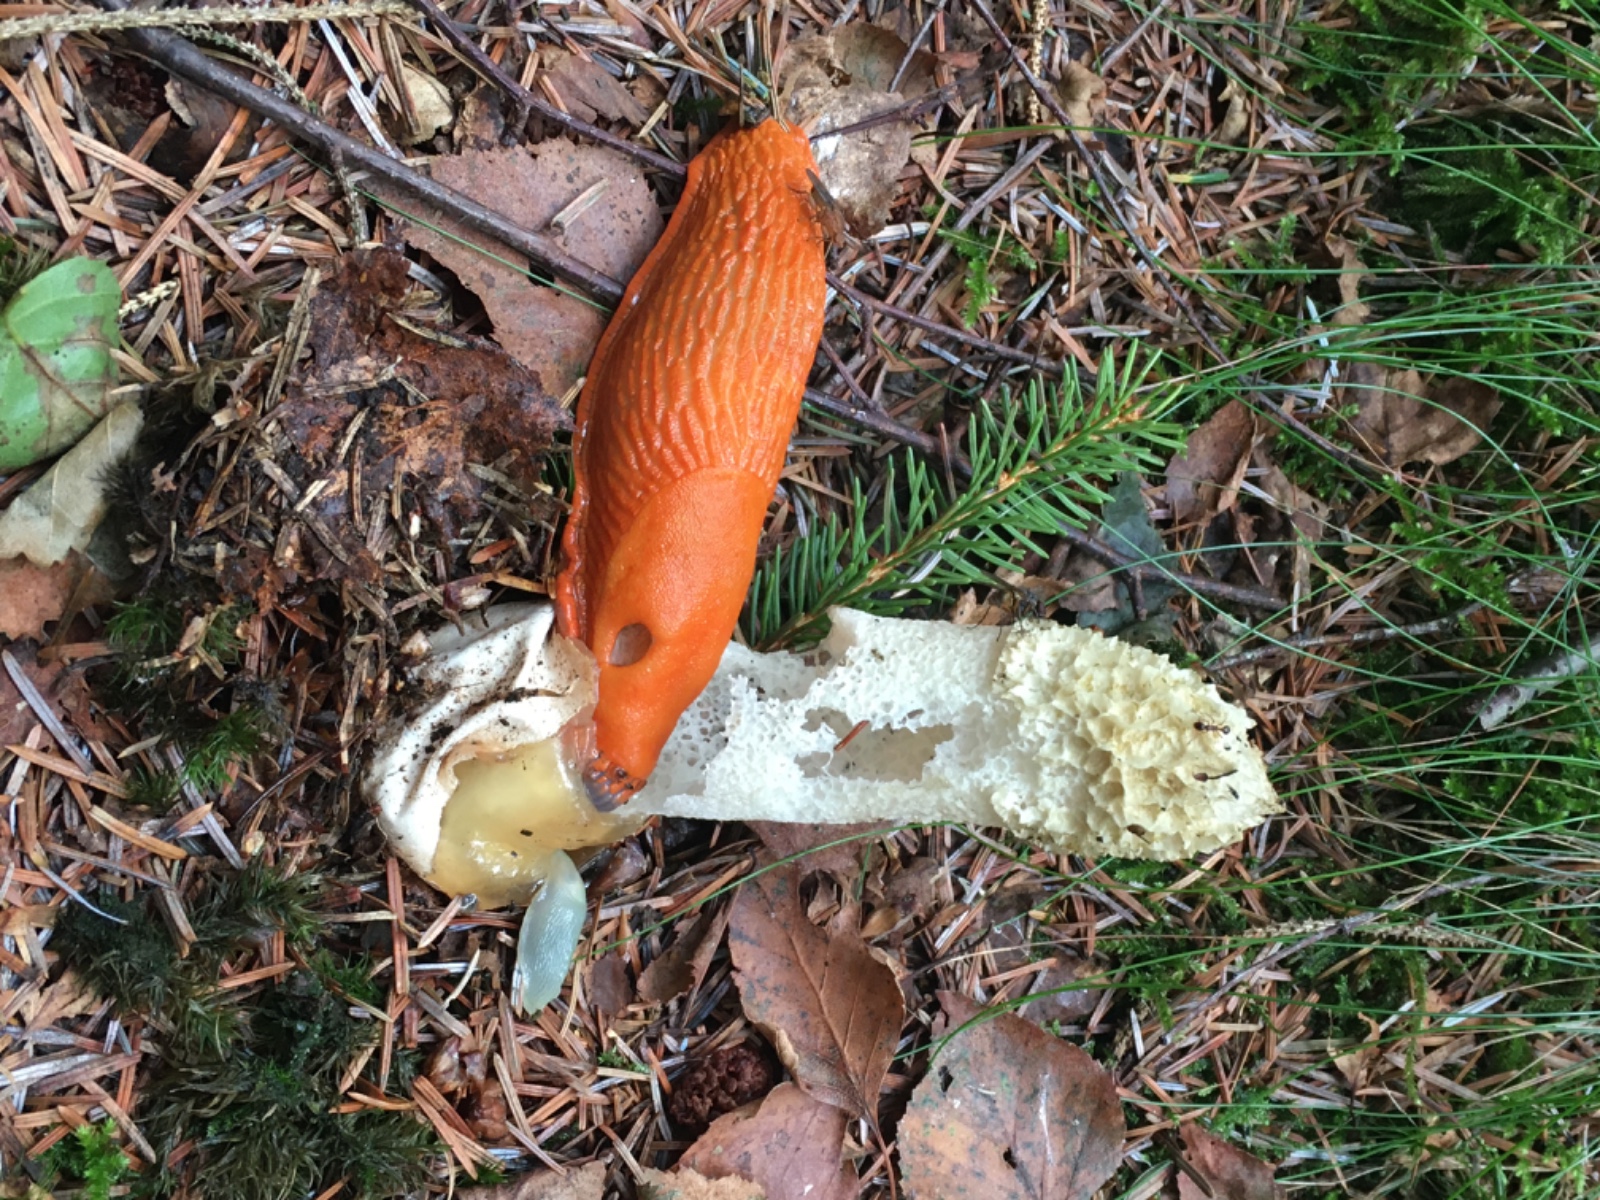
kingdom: Fungi
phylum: Basidiomycota
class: Agaricomycetes
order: Phallales
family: Phallaceae
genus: Phallus
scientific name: Phallus impudicus
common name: almindelig stinksvamp
